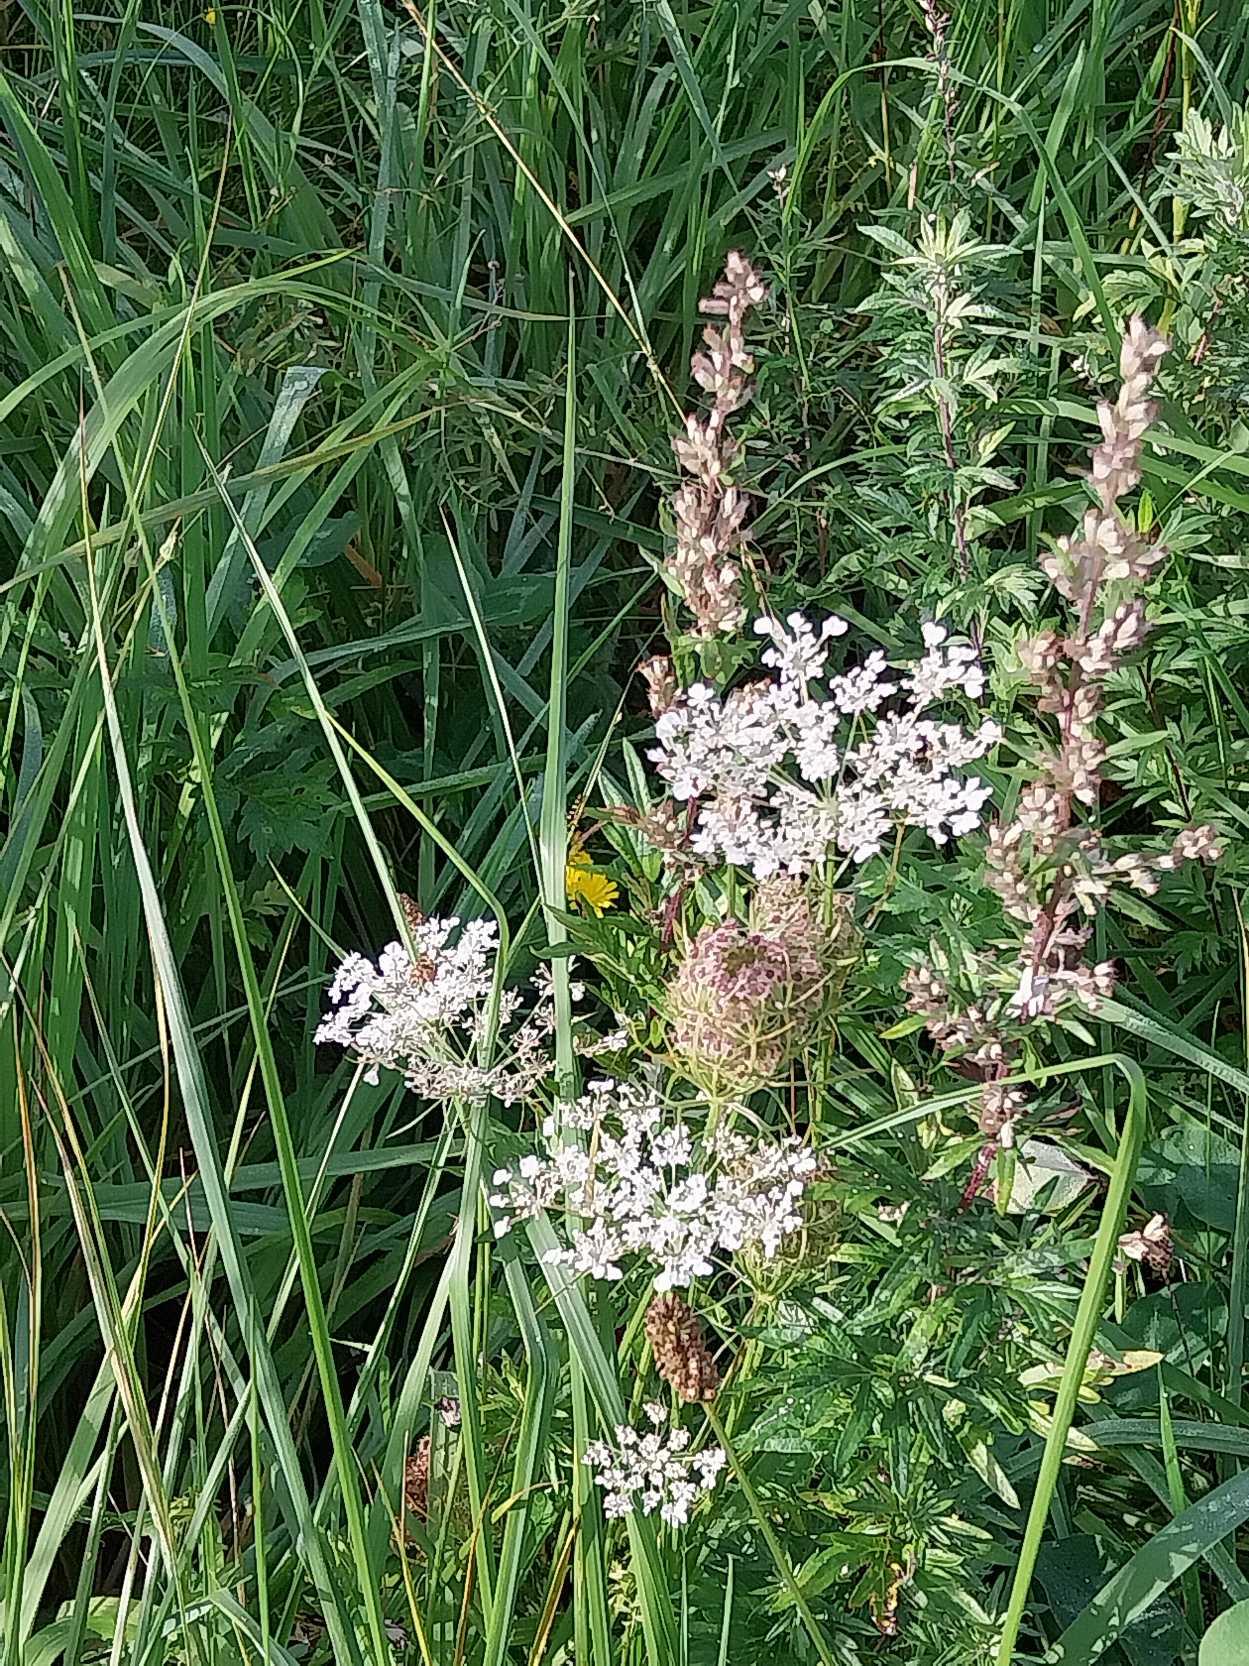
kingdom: Plantae
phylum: Tracheophyta
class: Magnoliopsida
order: Apiales
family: Apiaceae
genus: Daucus
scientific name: Daucus carota
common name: Gulerod
